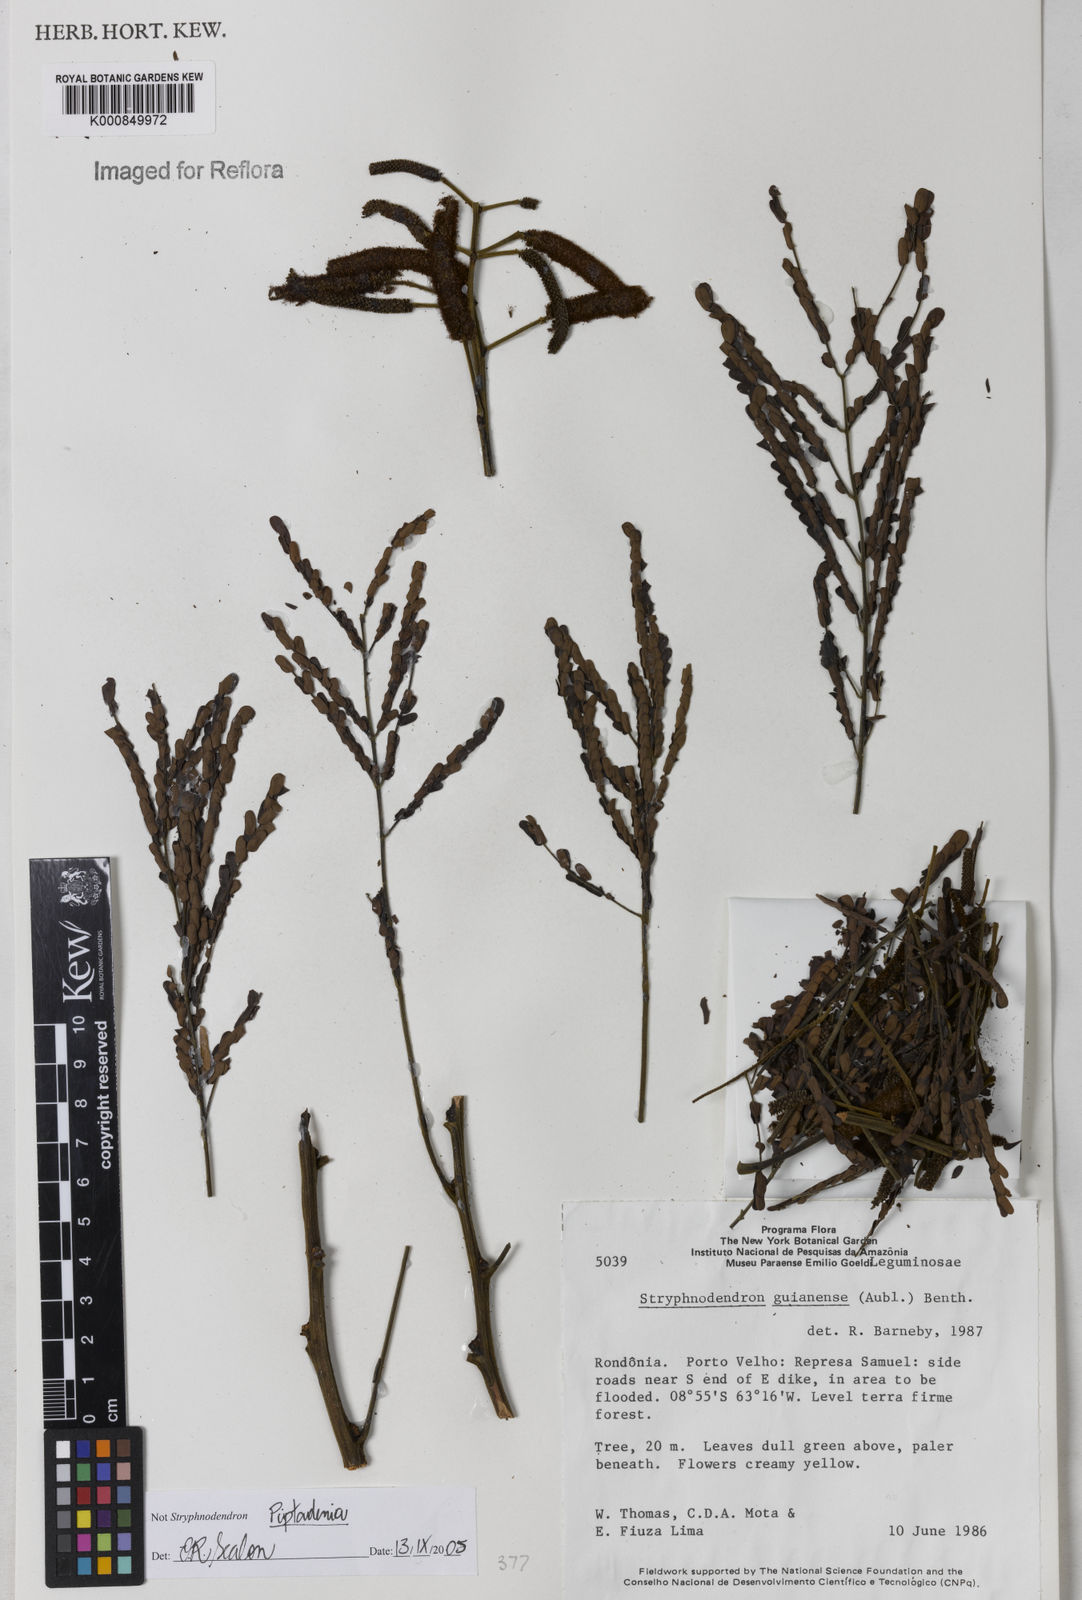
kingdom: Plantae
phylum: Tracheophyta
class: Magnoliopsida
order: Fabales
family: Fabaceae
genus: Piptadenia
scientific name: Piptadenia
